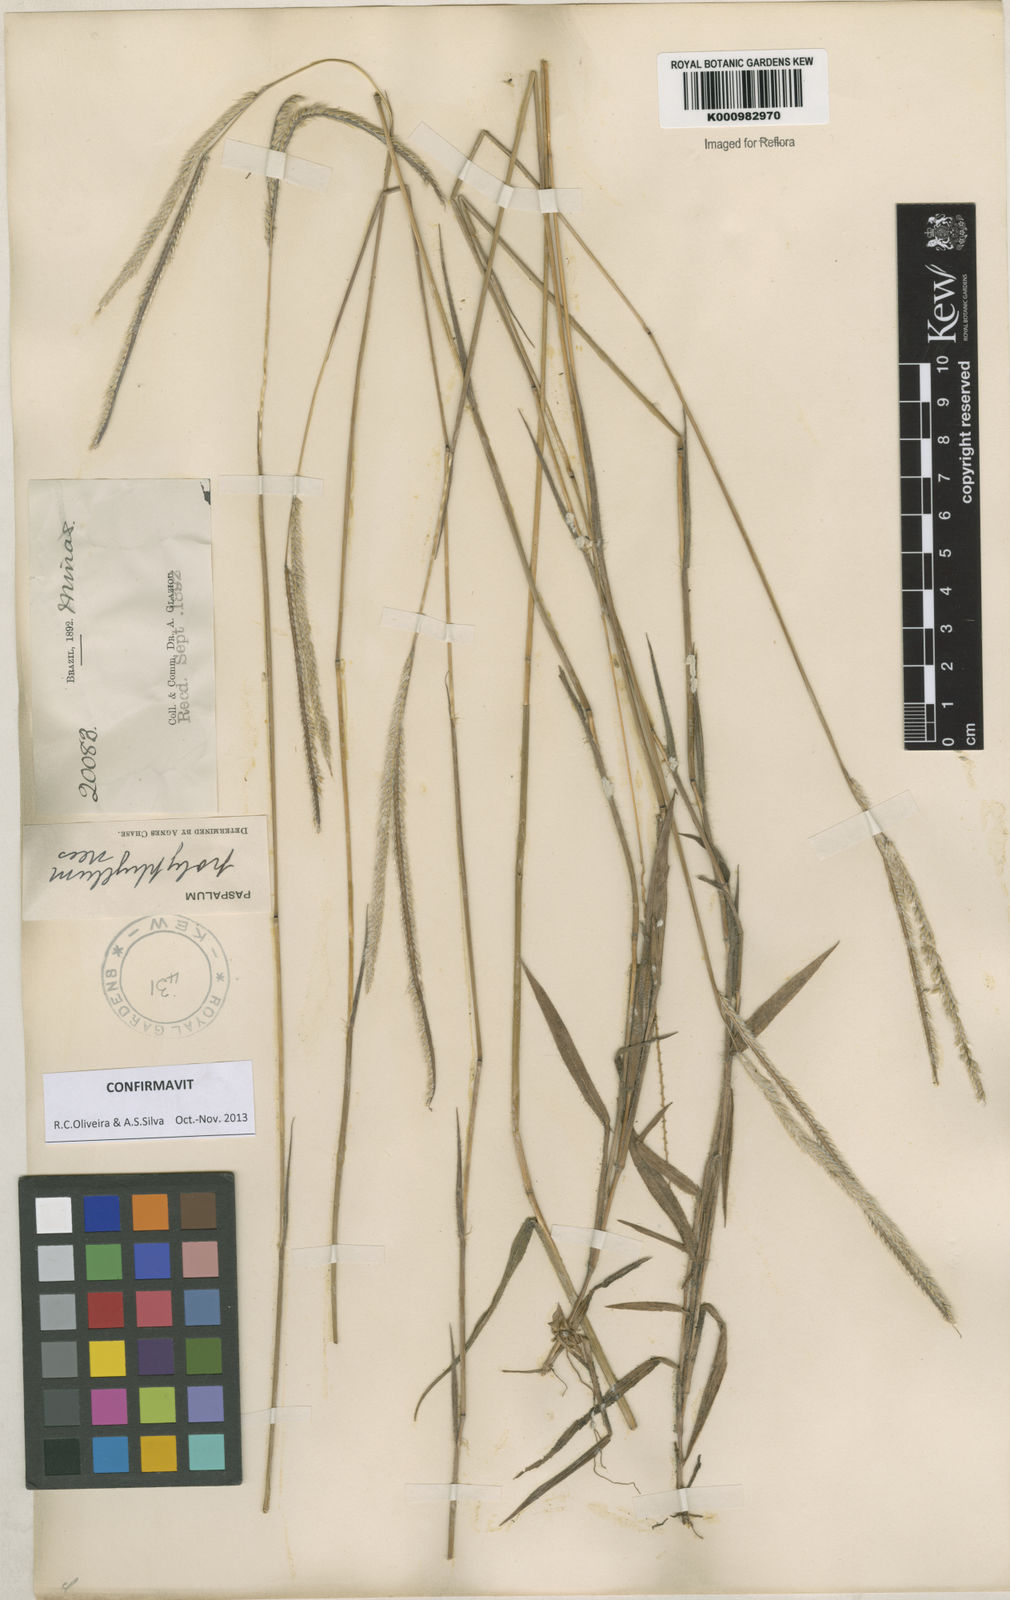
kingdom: Plantae
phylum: Tracheophyta
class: Liliopsida
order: Poales
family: Poaceae
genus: Paspalum
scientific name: Paspalum
